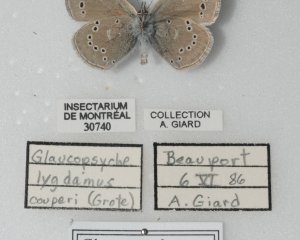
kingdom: Animalia
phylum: Arthropoda
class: Insecta
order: Lepidoptera
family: Lycaenidae
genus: Glaucopsyche
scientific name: Glaucopsyche lygdamus
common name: Silvery Blue
